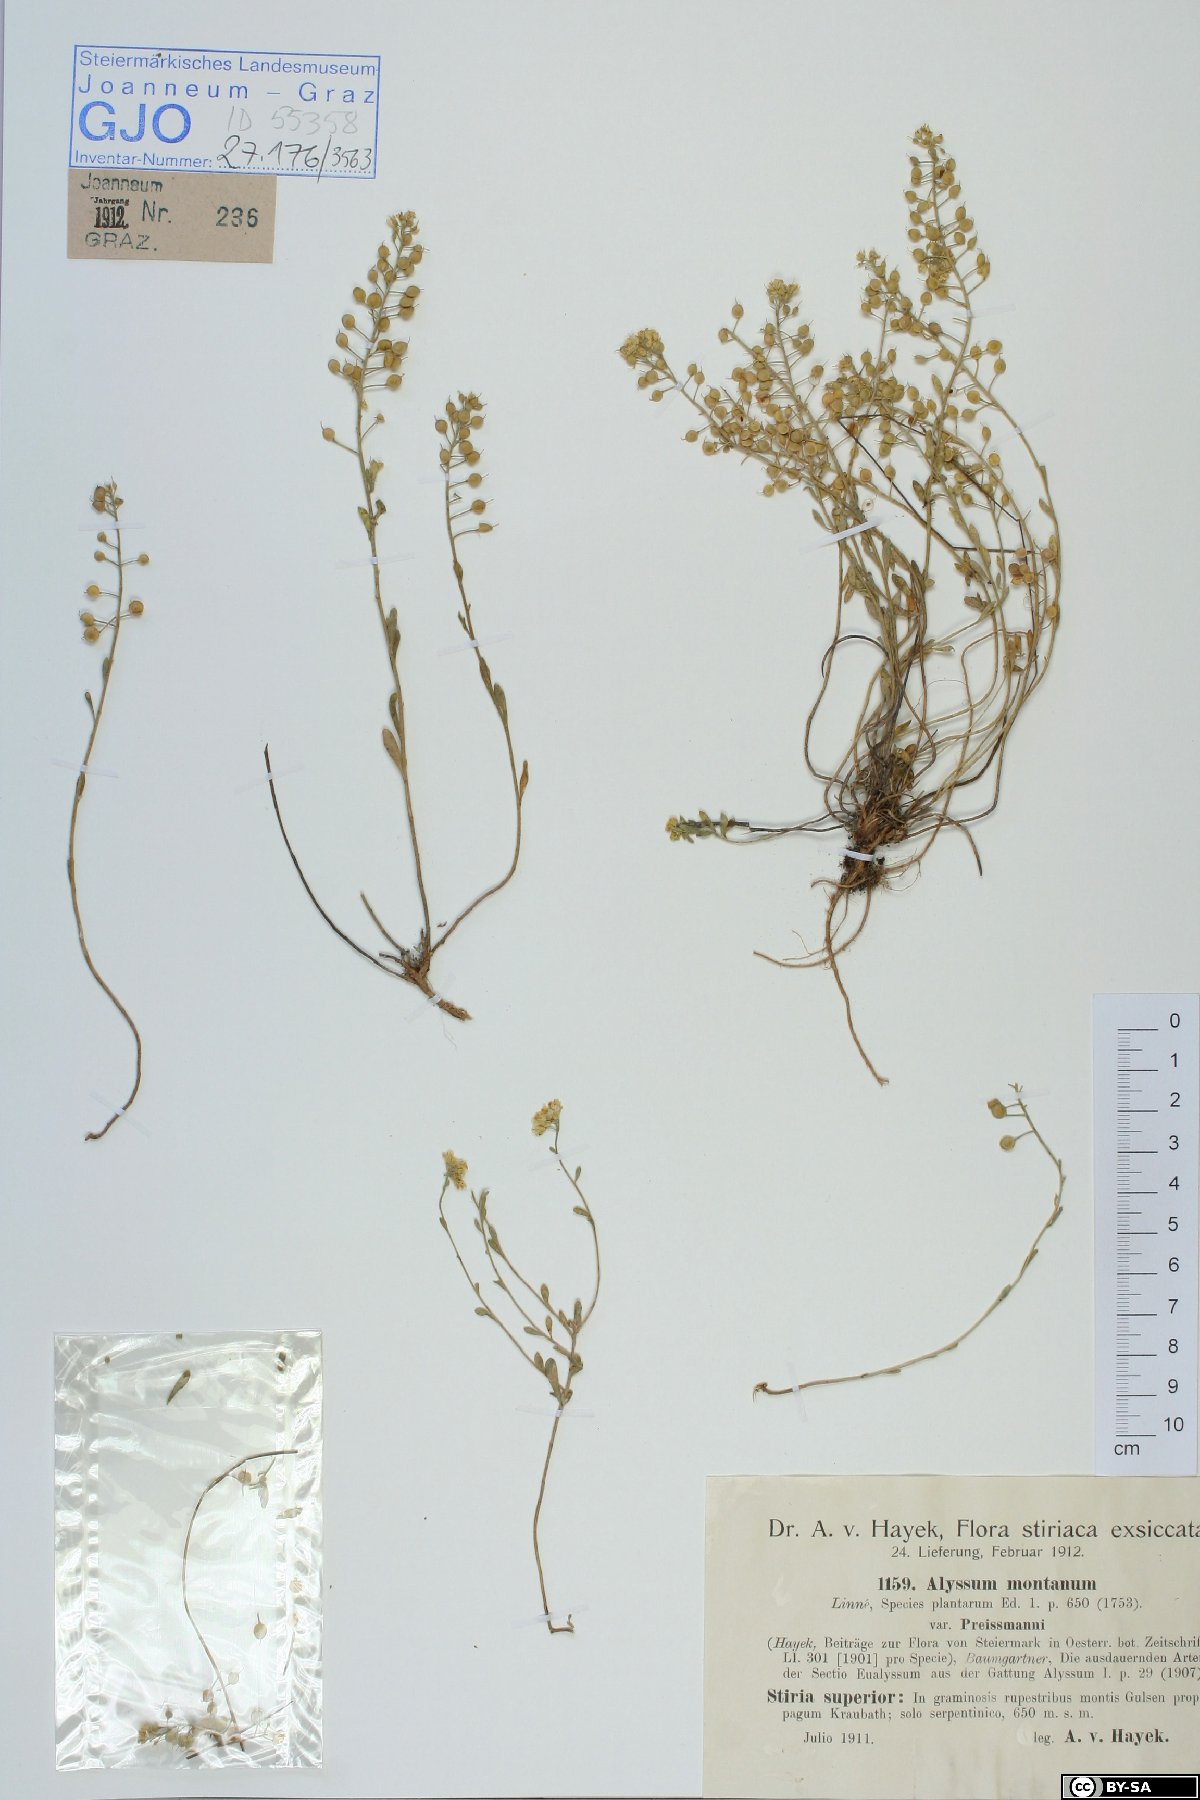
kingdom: Plantae
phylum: Tracheophyta
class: Magnoliopsida
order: Brassicales
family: Brassicaceae
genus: Alyssum
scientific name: Alyssum gmelinii
